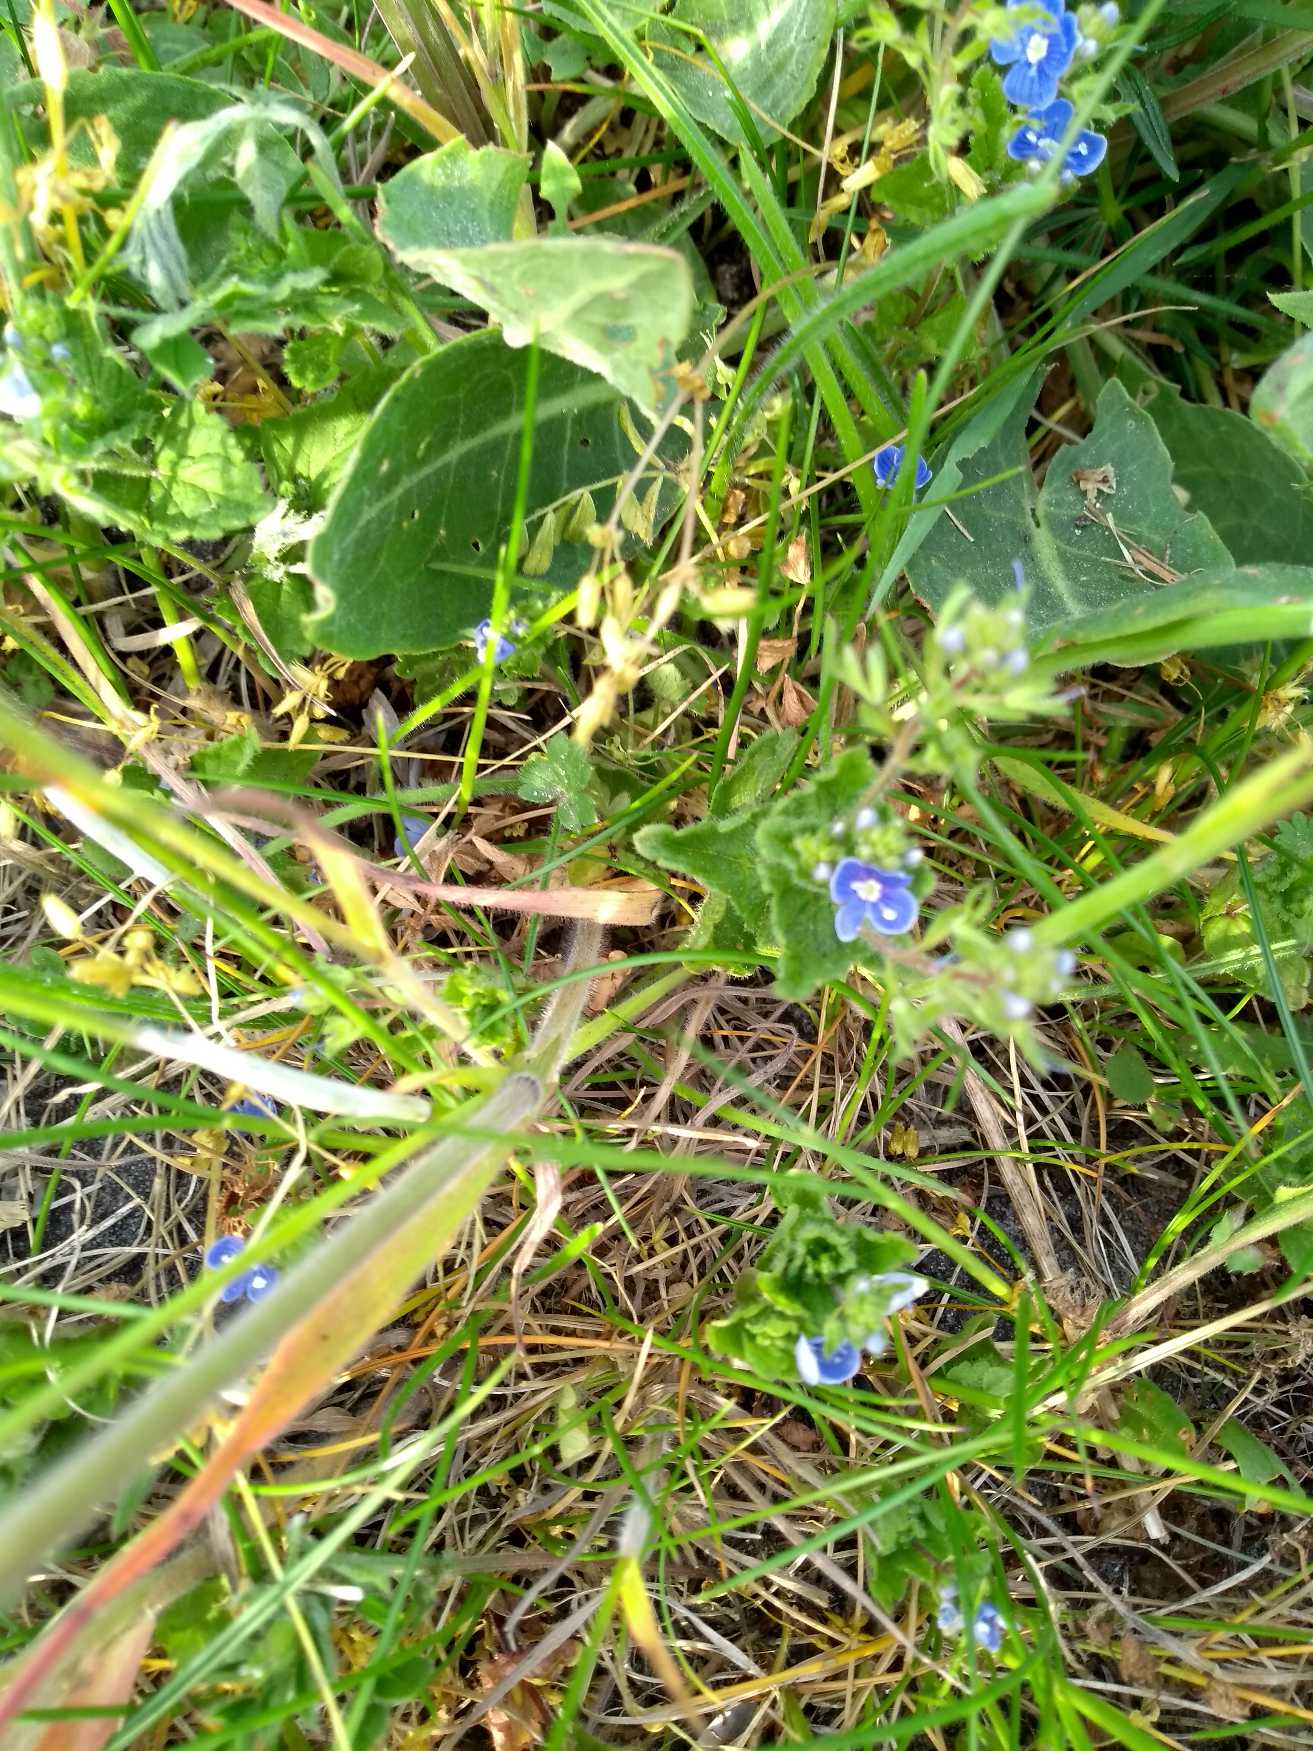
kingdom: Plantae
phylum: Tracheophyta
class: Magnoliopsida
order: Lamiales
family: Plantaginaceae
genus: Veronica
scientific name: Veronica chamaedrys
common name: Tveskægget ærenpris
